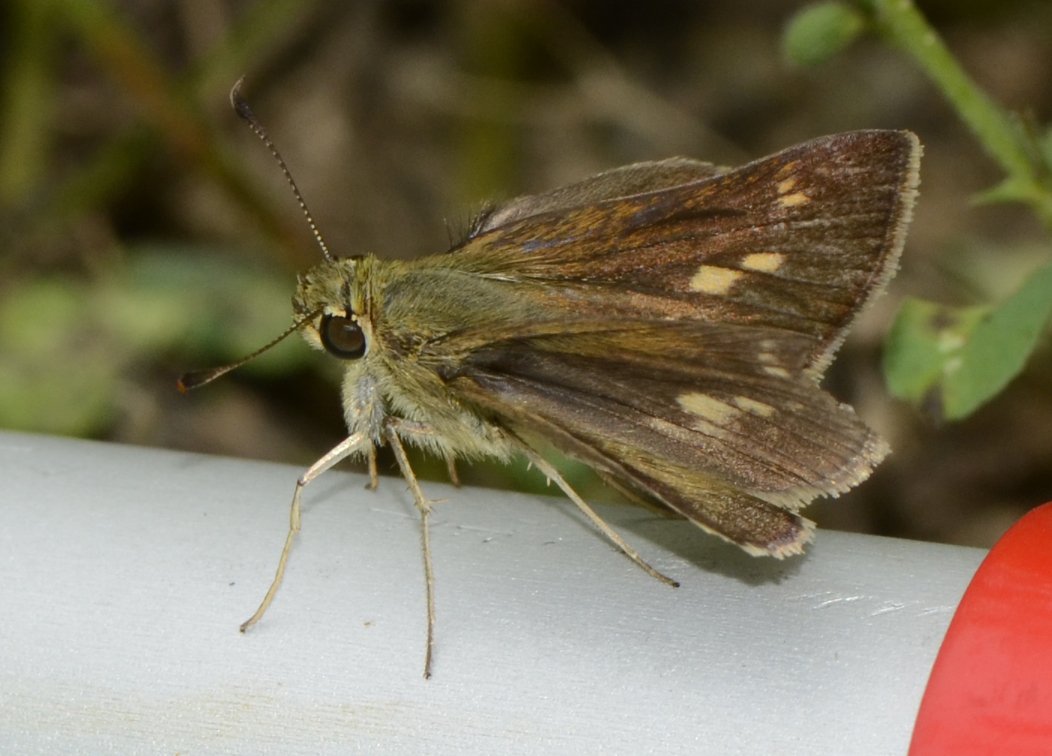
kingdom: Animalia
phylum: Arthropoda
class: Insecta
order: Lepidoptera
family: Hesperiidae
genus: Polites
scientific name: Polites egeremet
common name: Northern Broken-Dash
